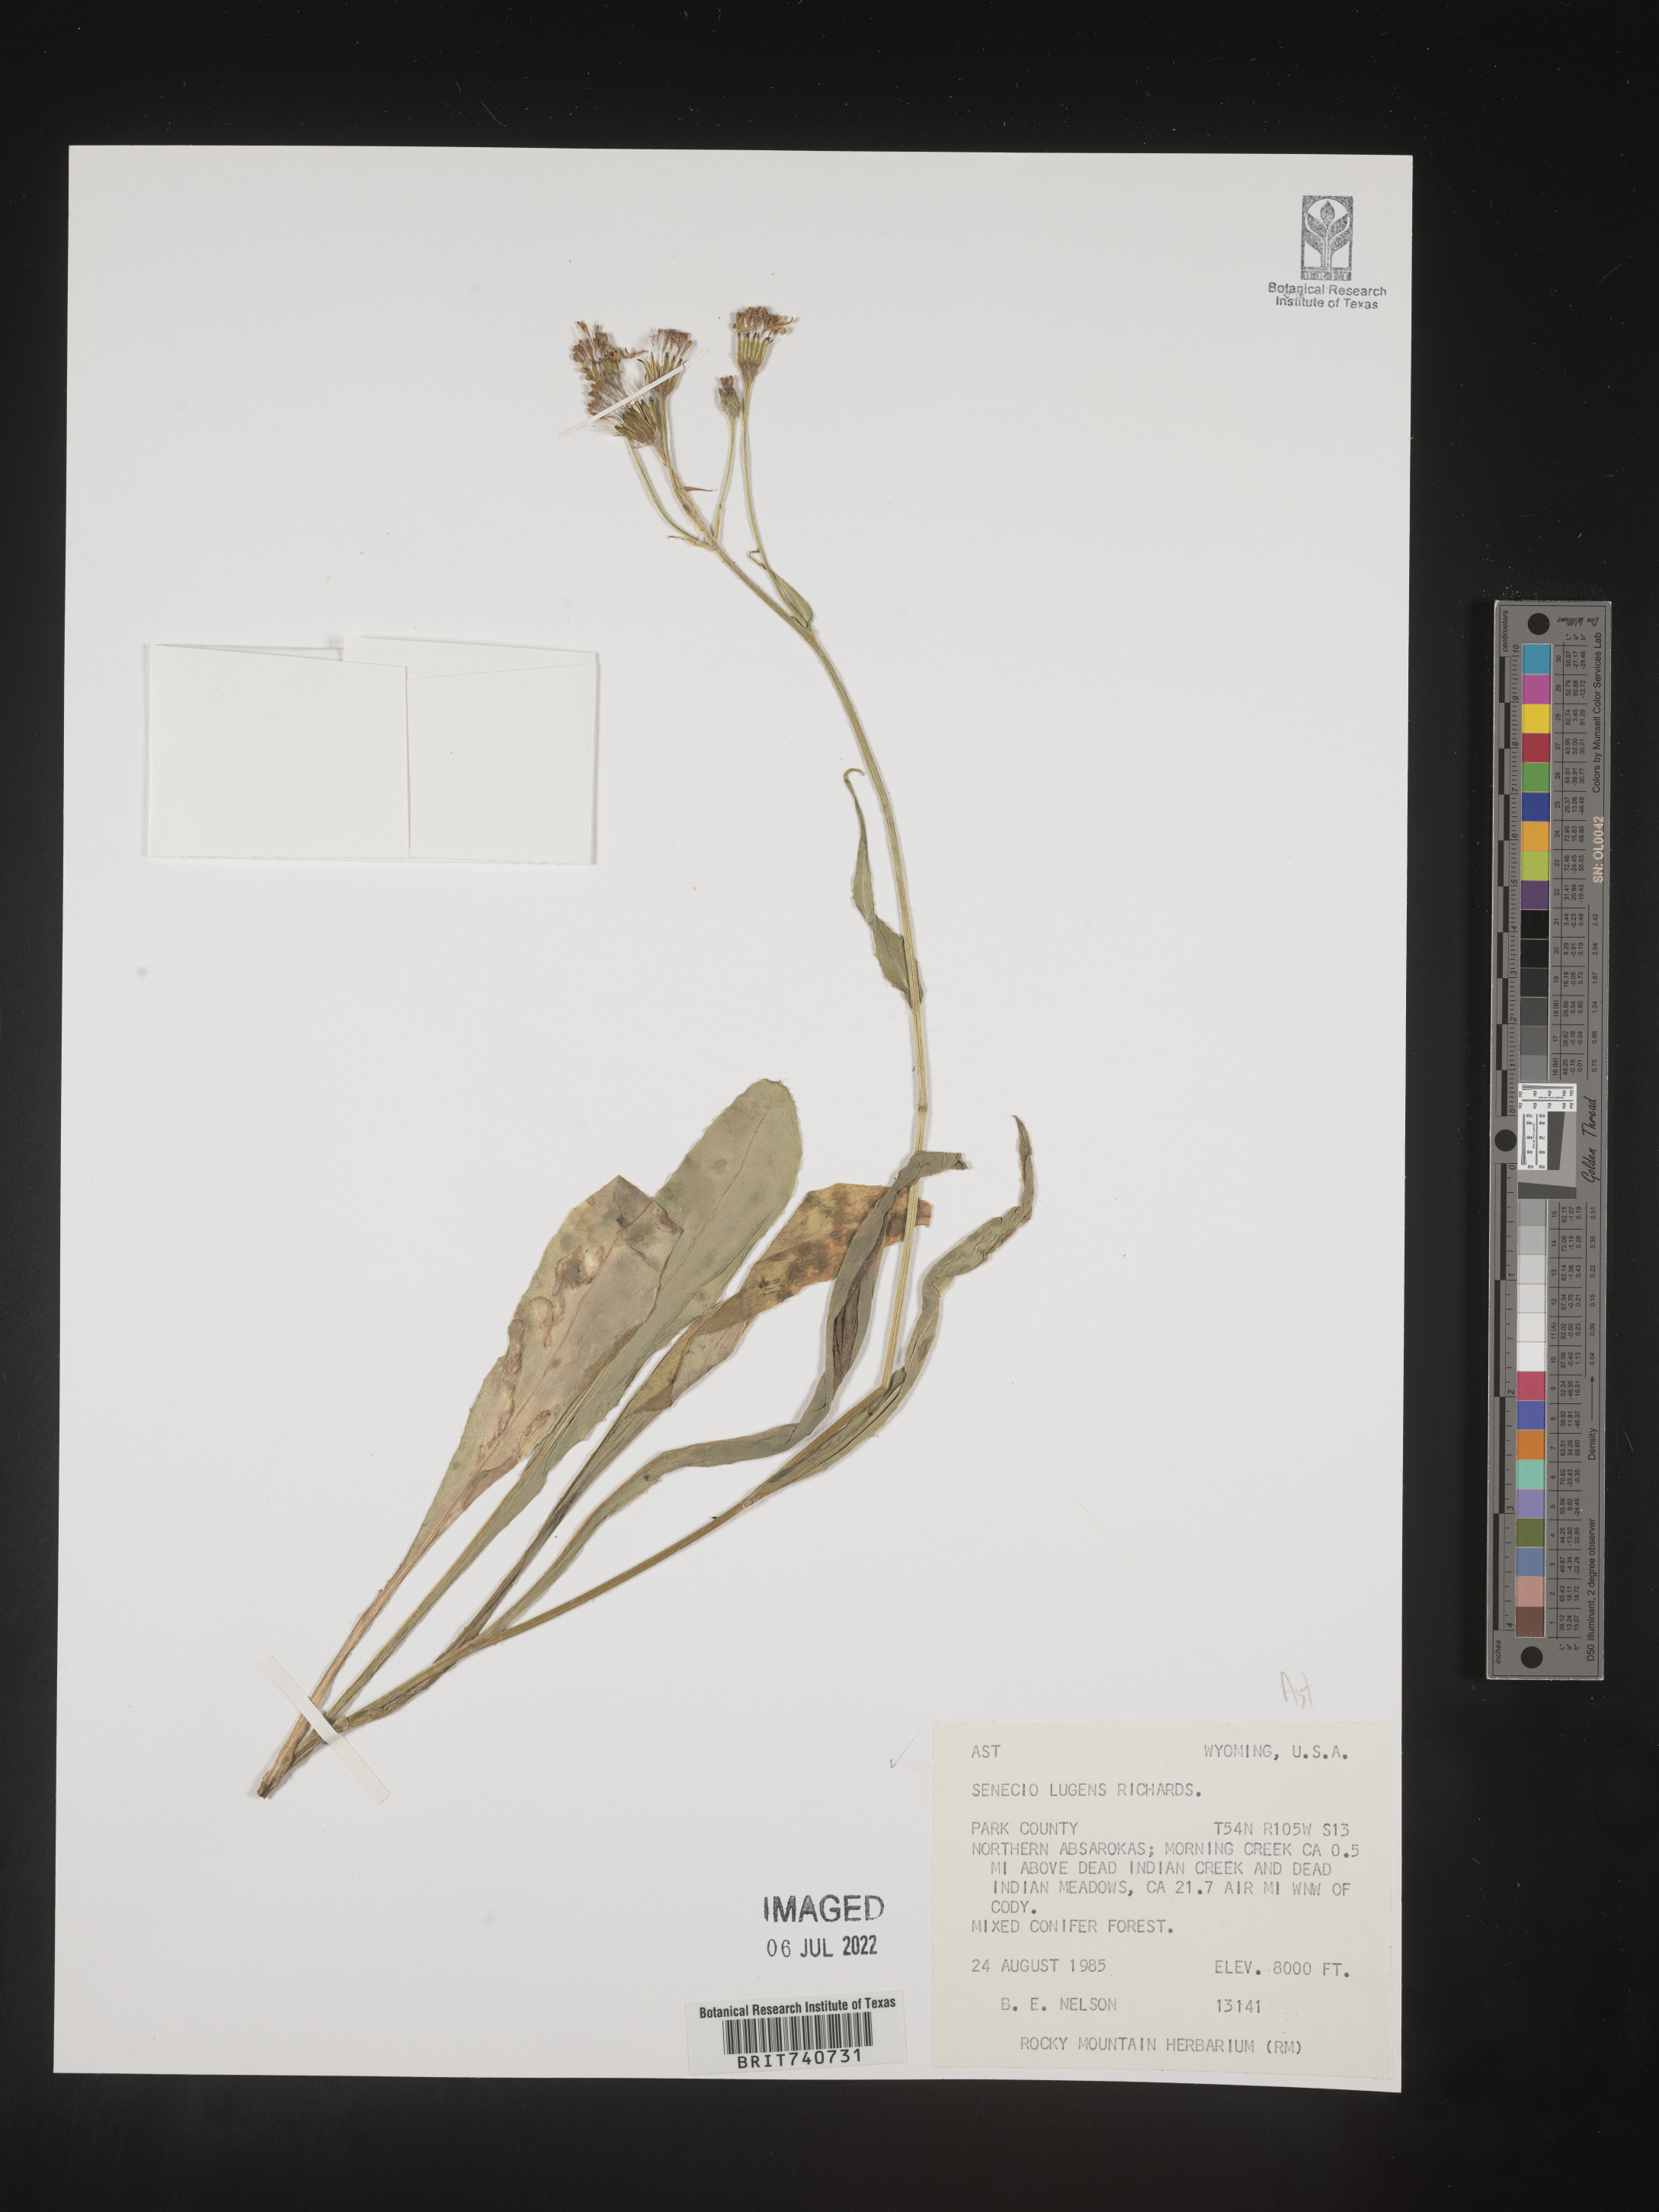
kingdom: Plantae
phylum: Tracheophyta
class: Magnoliopsida
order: Asterales
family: Asteraceae
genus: Senecio
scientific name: Senecio lugens
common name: Black-tip groundsel
